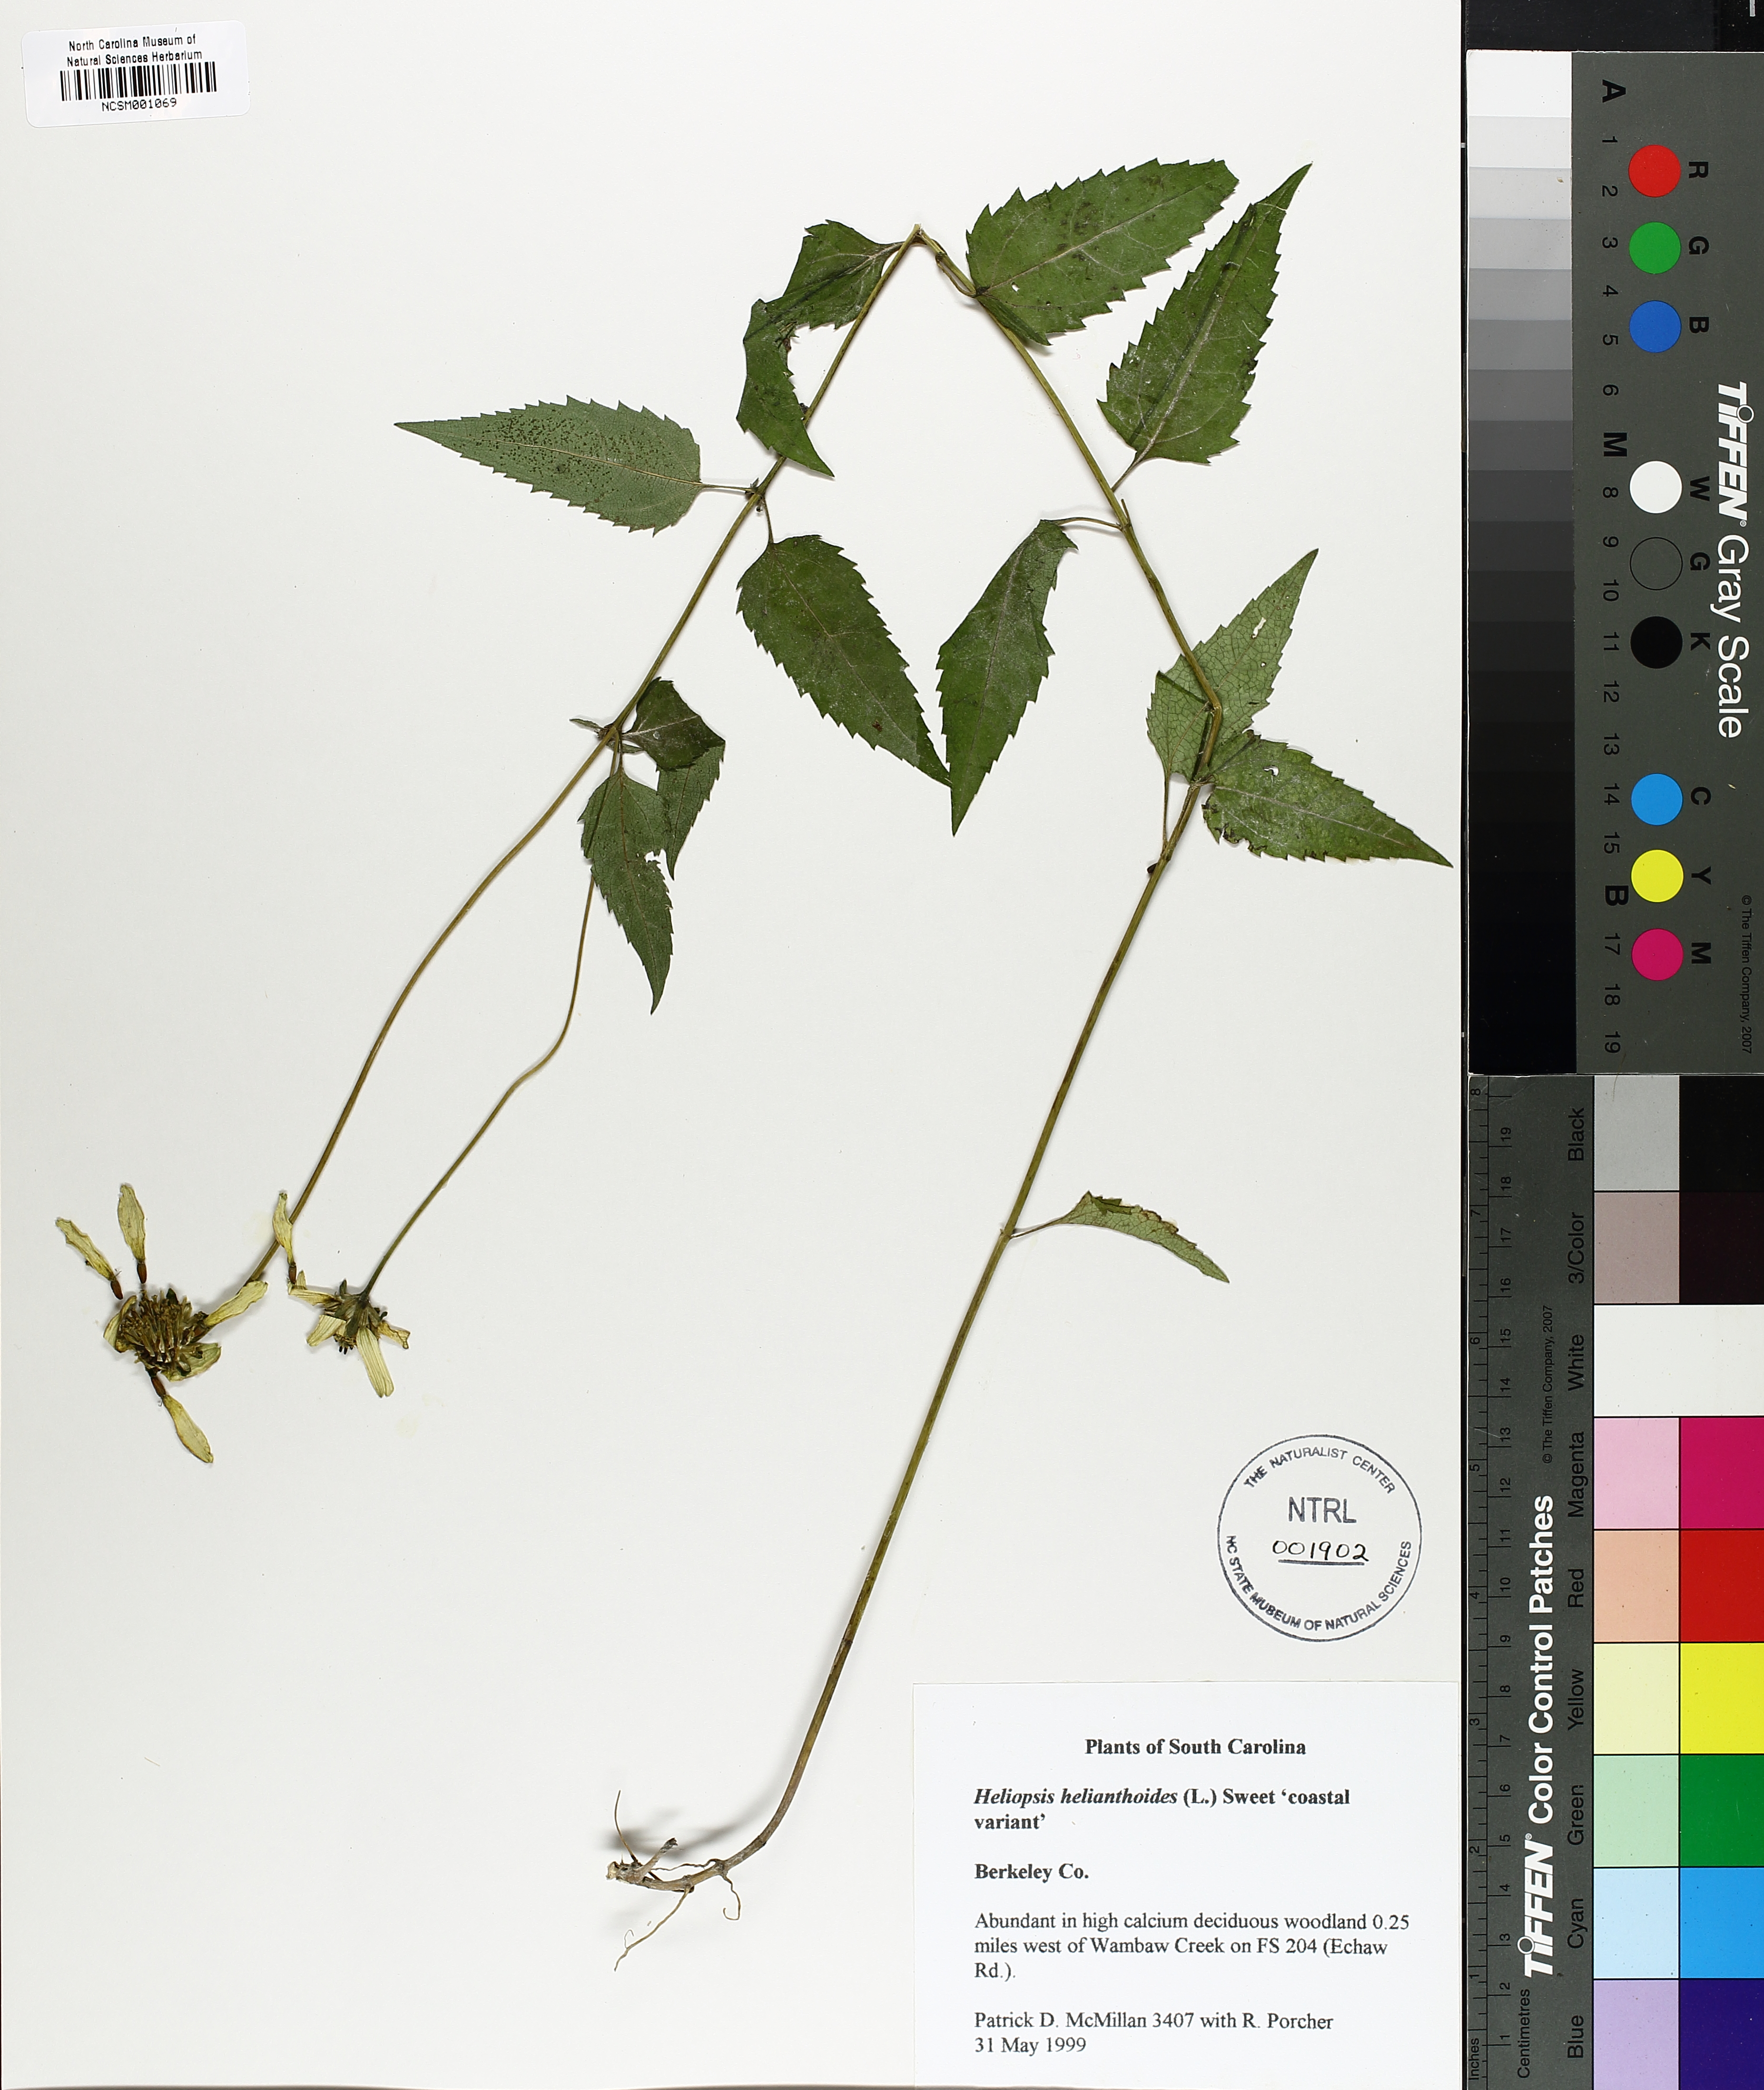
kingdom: Plantae
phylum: Tracheophyta
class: Magnoliopsida
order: Asterales
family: Asteraceae
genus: Heliopsis
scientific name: Heliopsis helianthoides
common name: False sunflower
